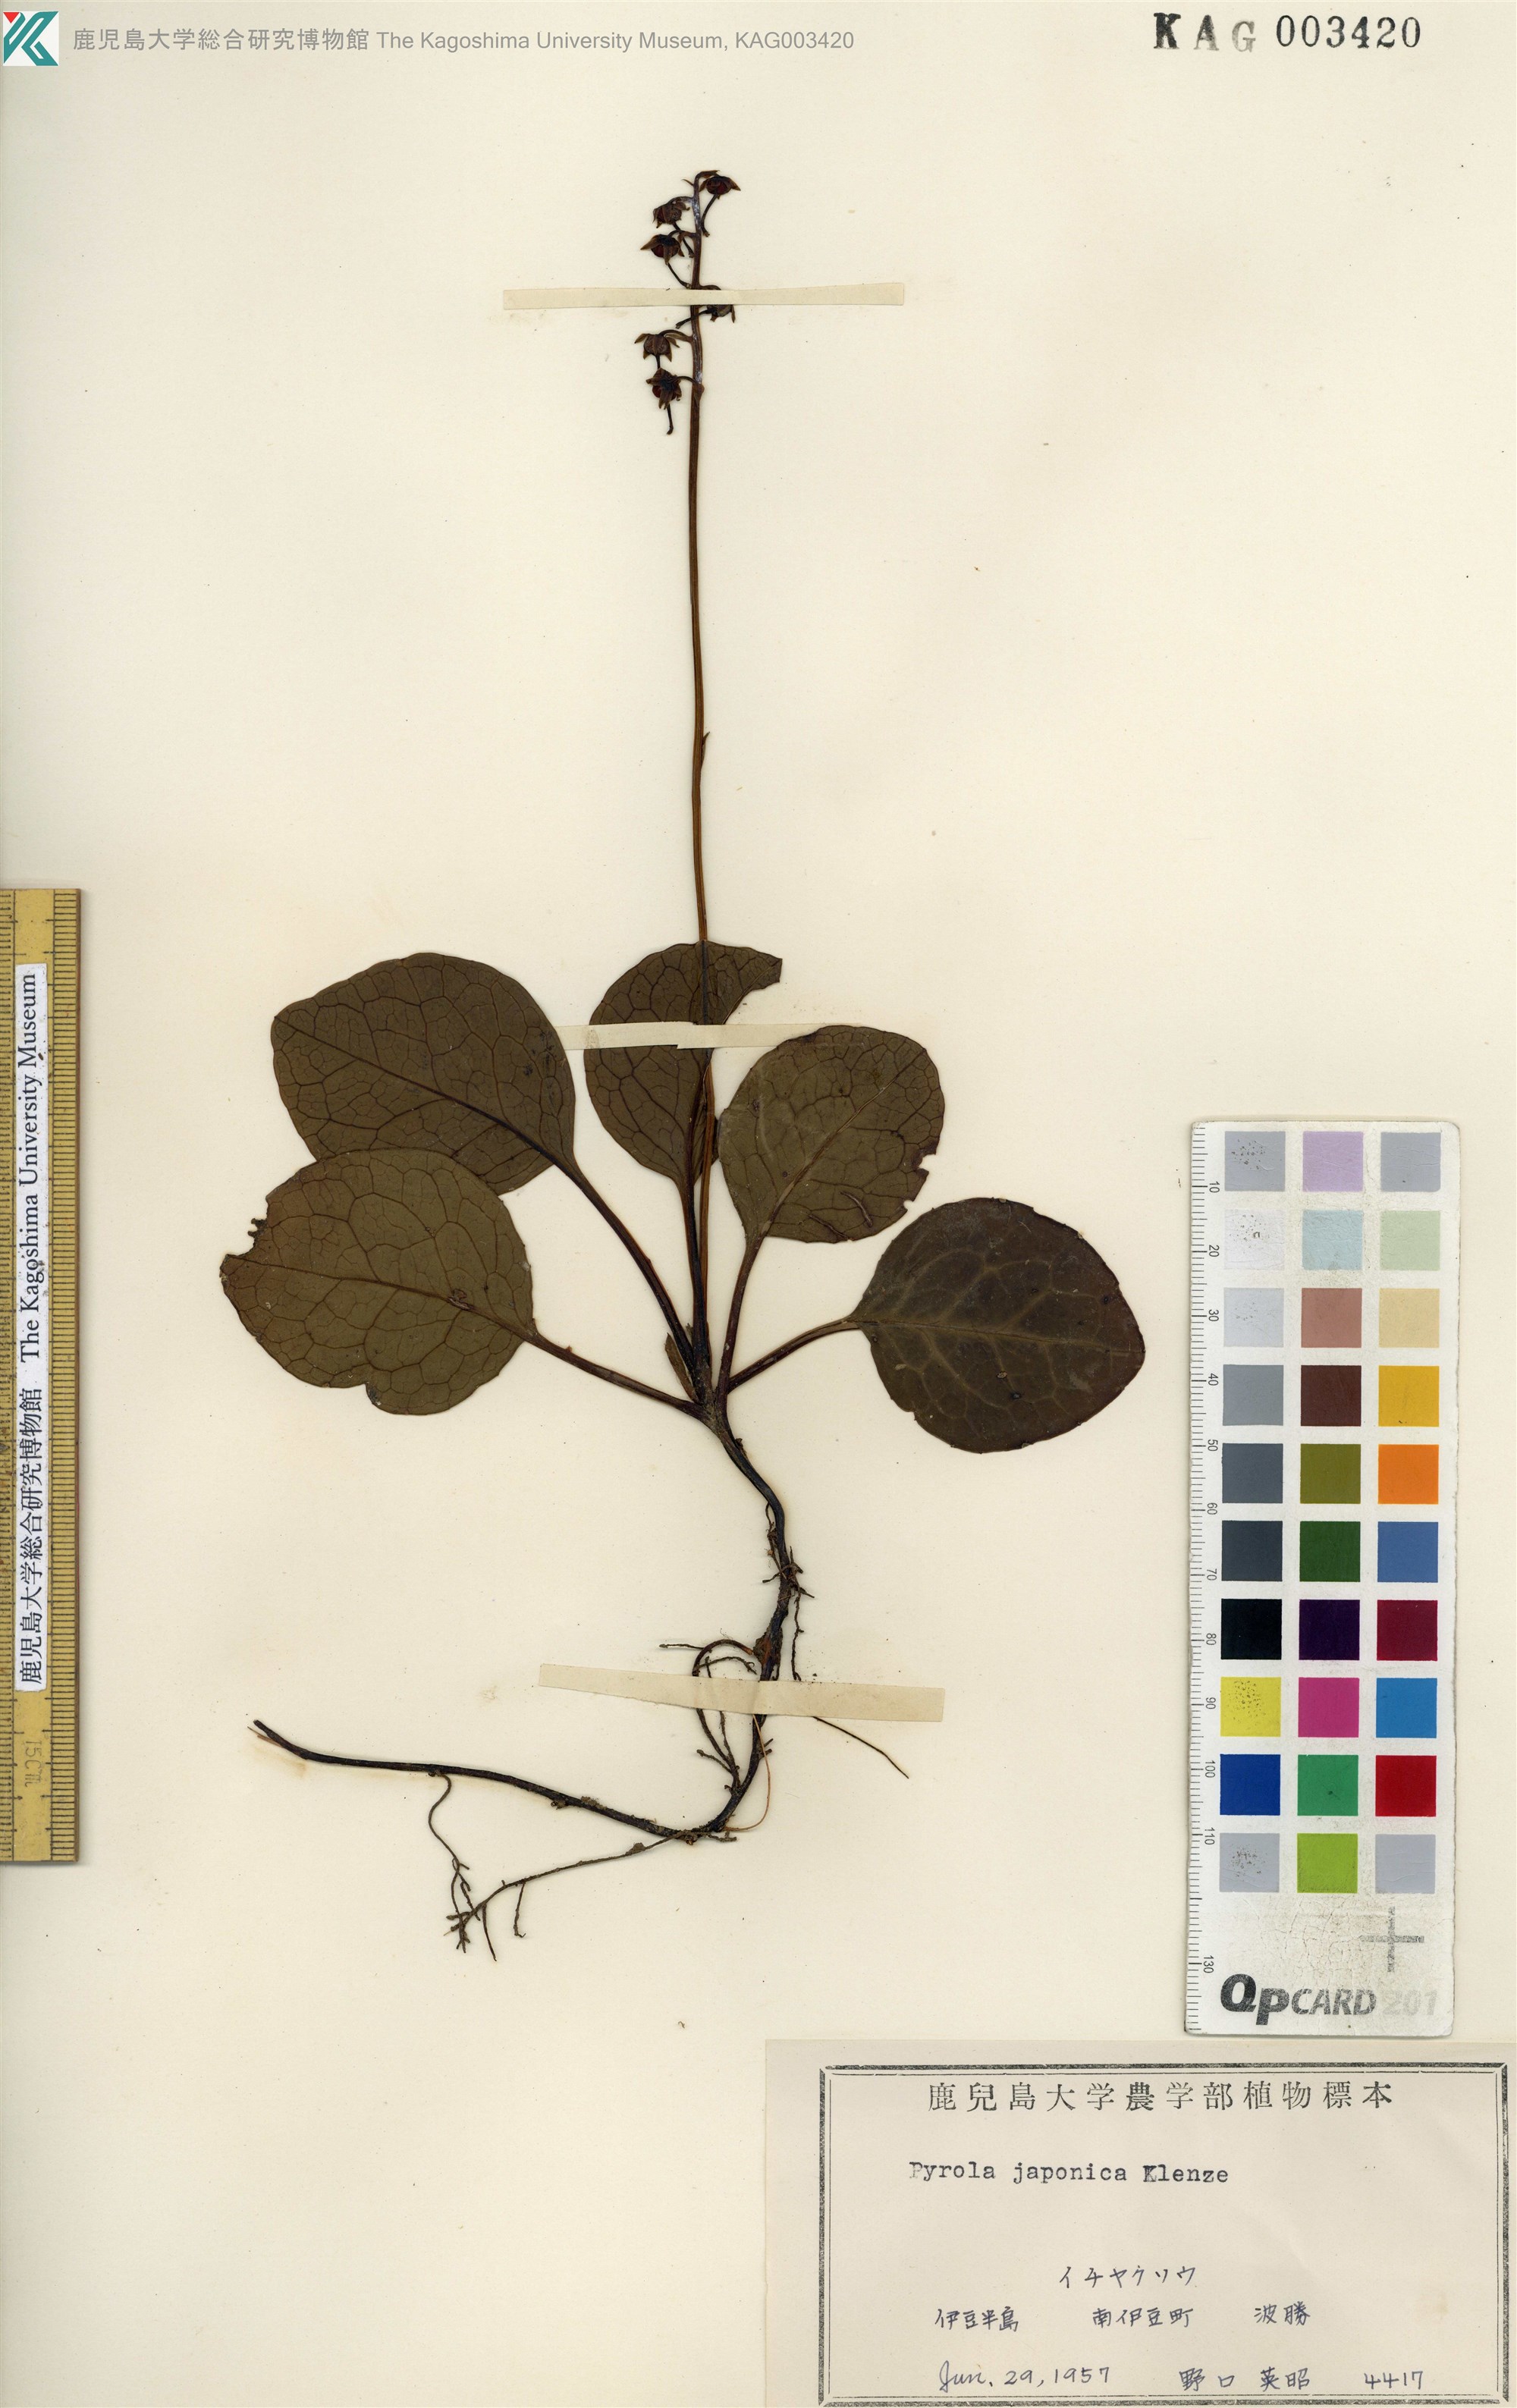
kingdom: Plantae
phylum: Tracheophyta
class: Magnoliopsida
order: Ericales
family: Ericaceae
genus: Pyrola
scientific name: Pyrola japonica
